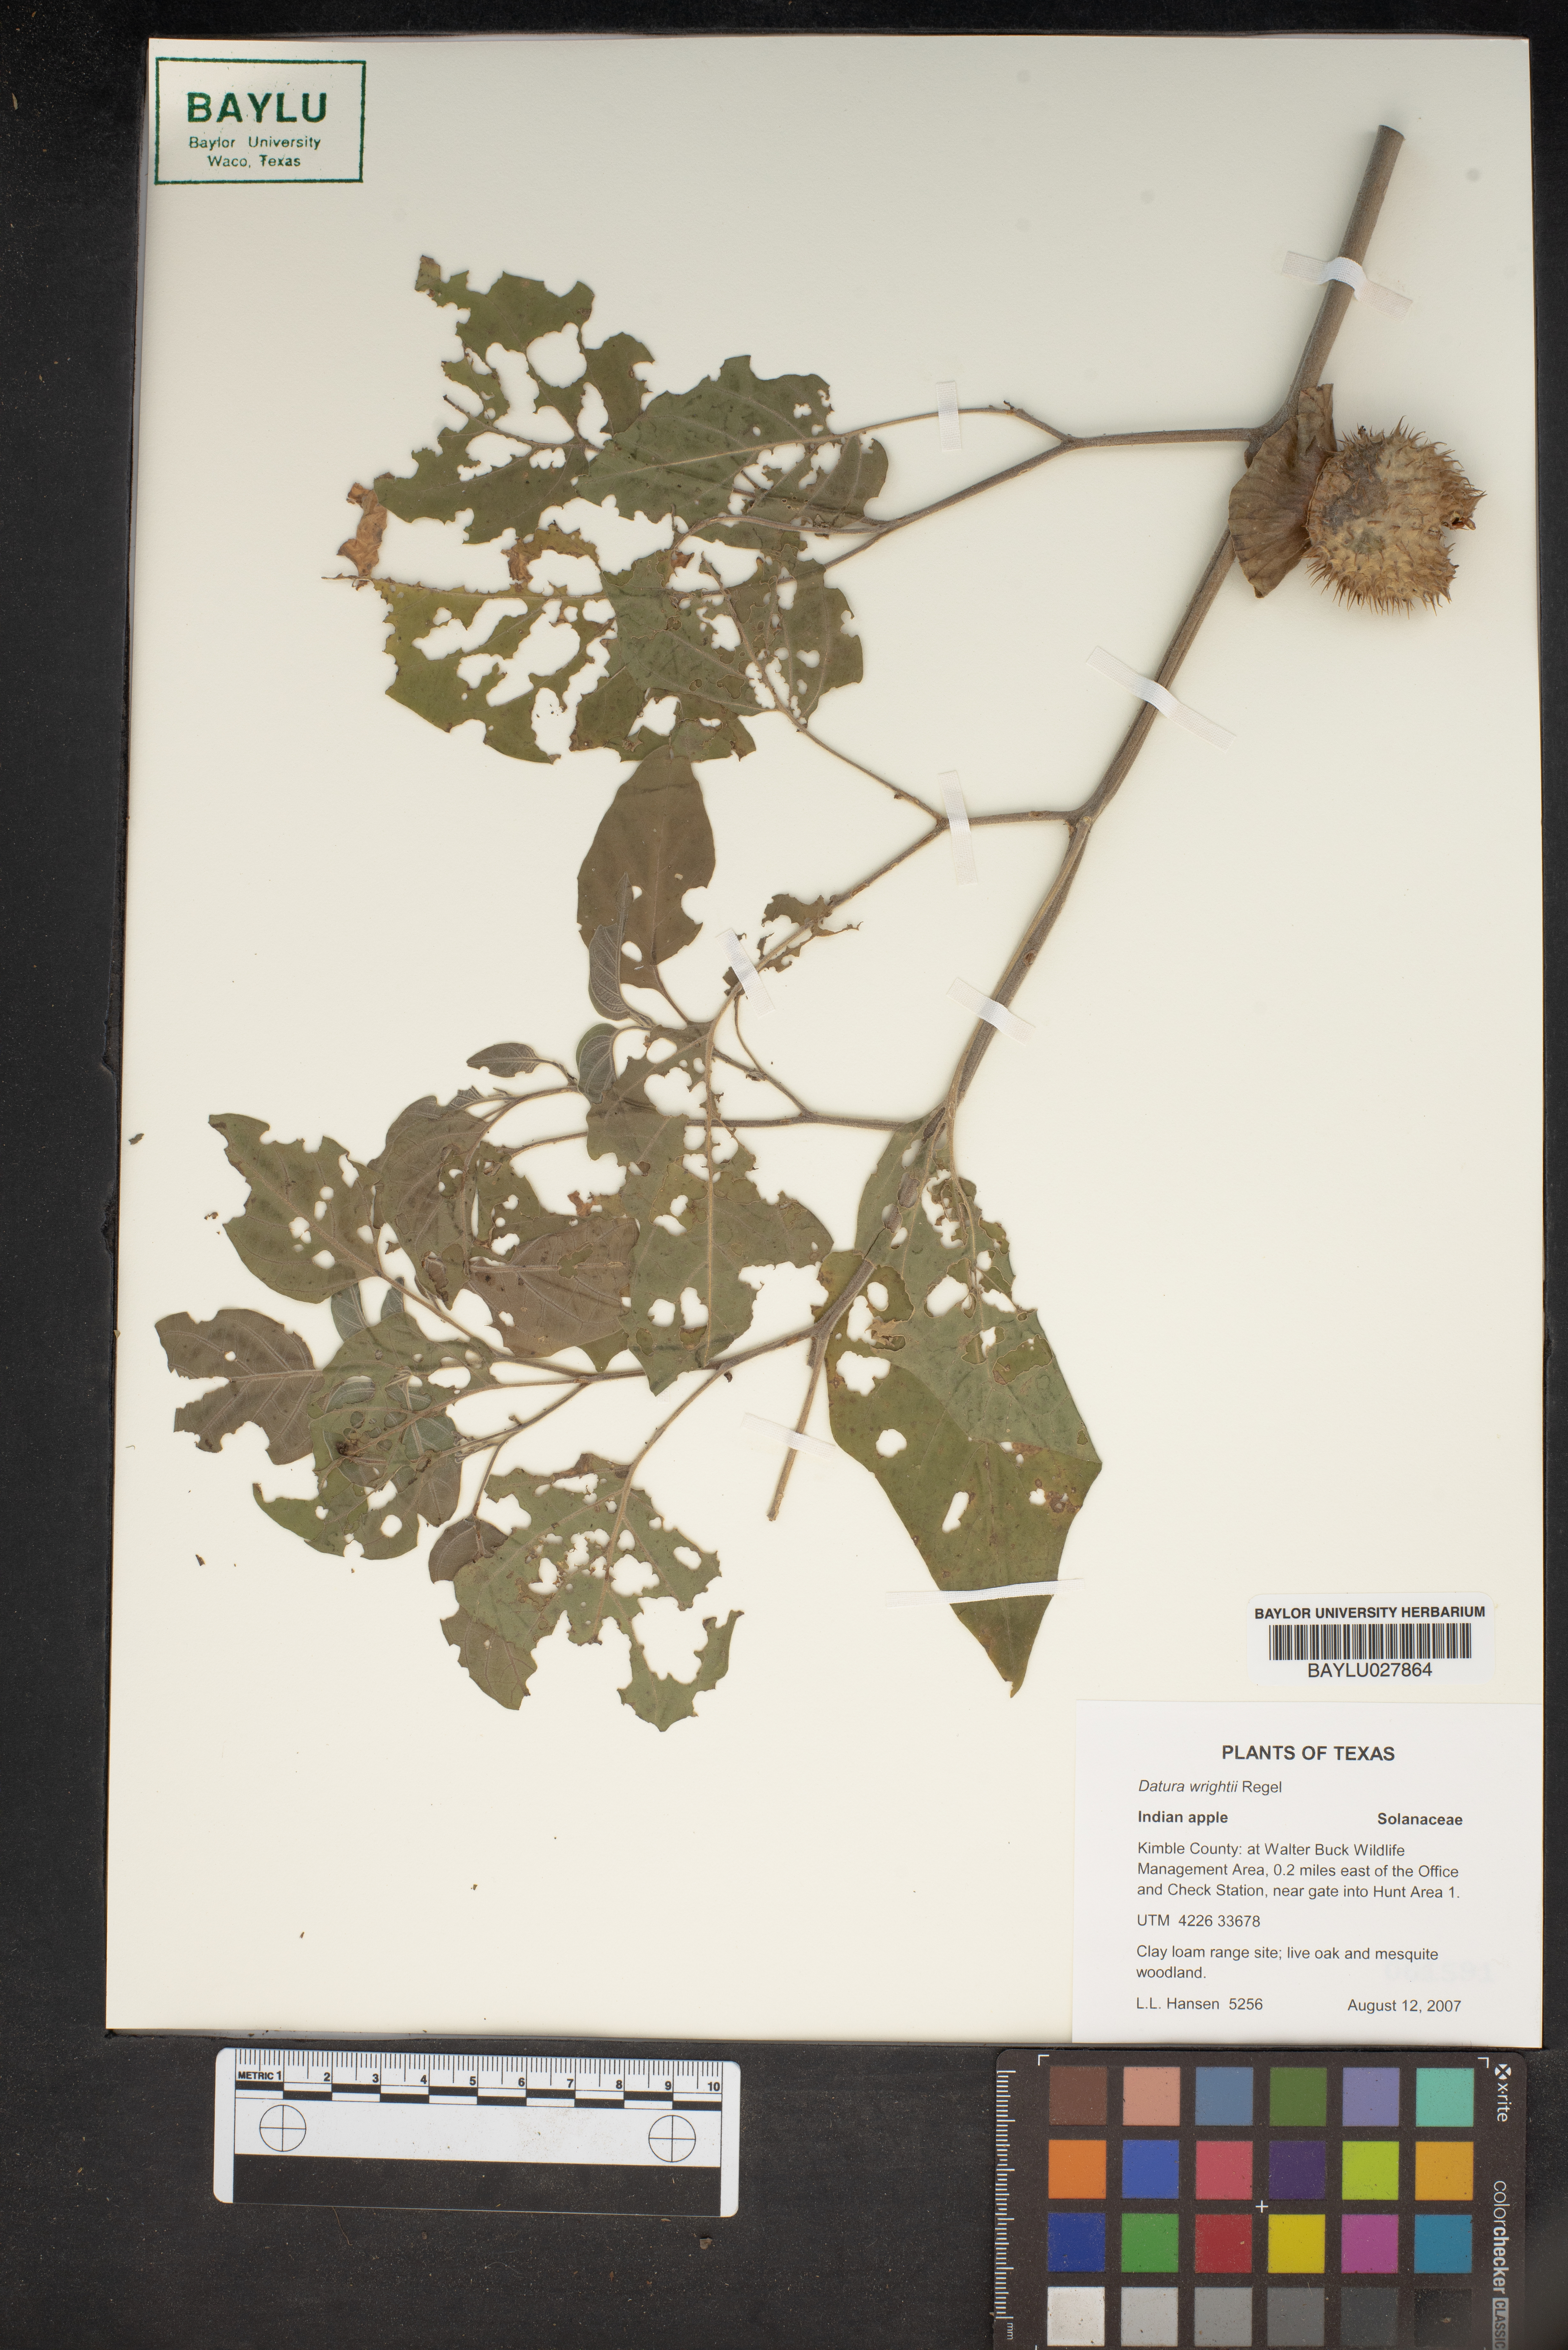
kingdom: Plantae
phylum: Tracheophyta
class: Magnoliopsida
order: Solanales
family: Solanaceae
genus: Datura
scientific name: Datura wrightii
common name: Sacred thorn-apple
